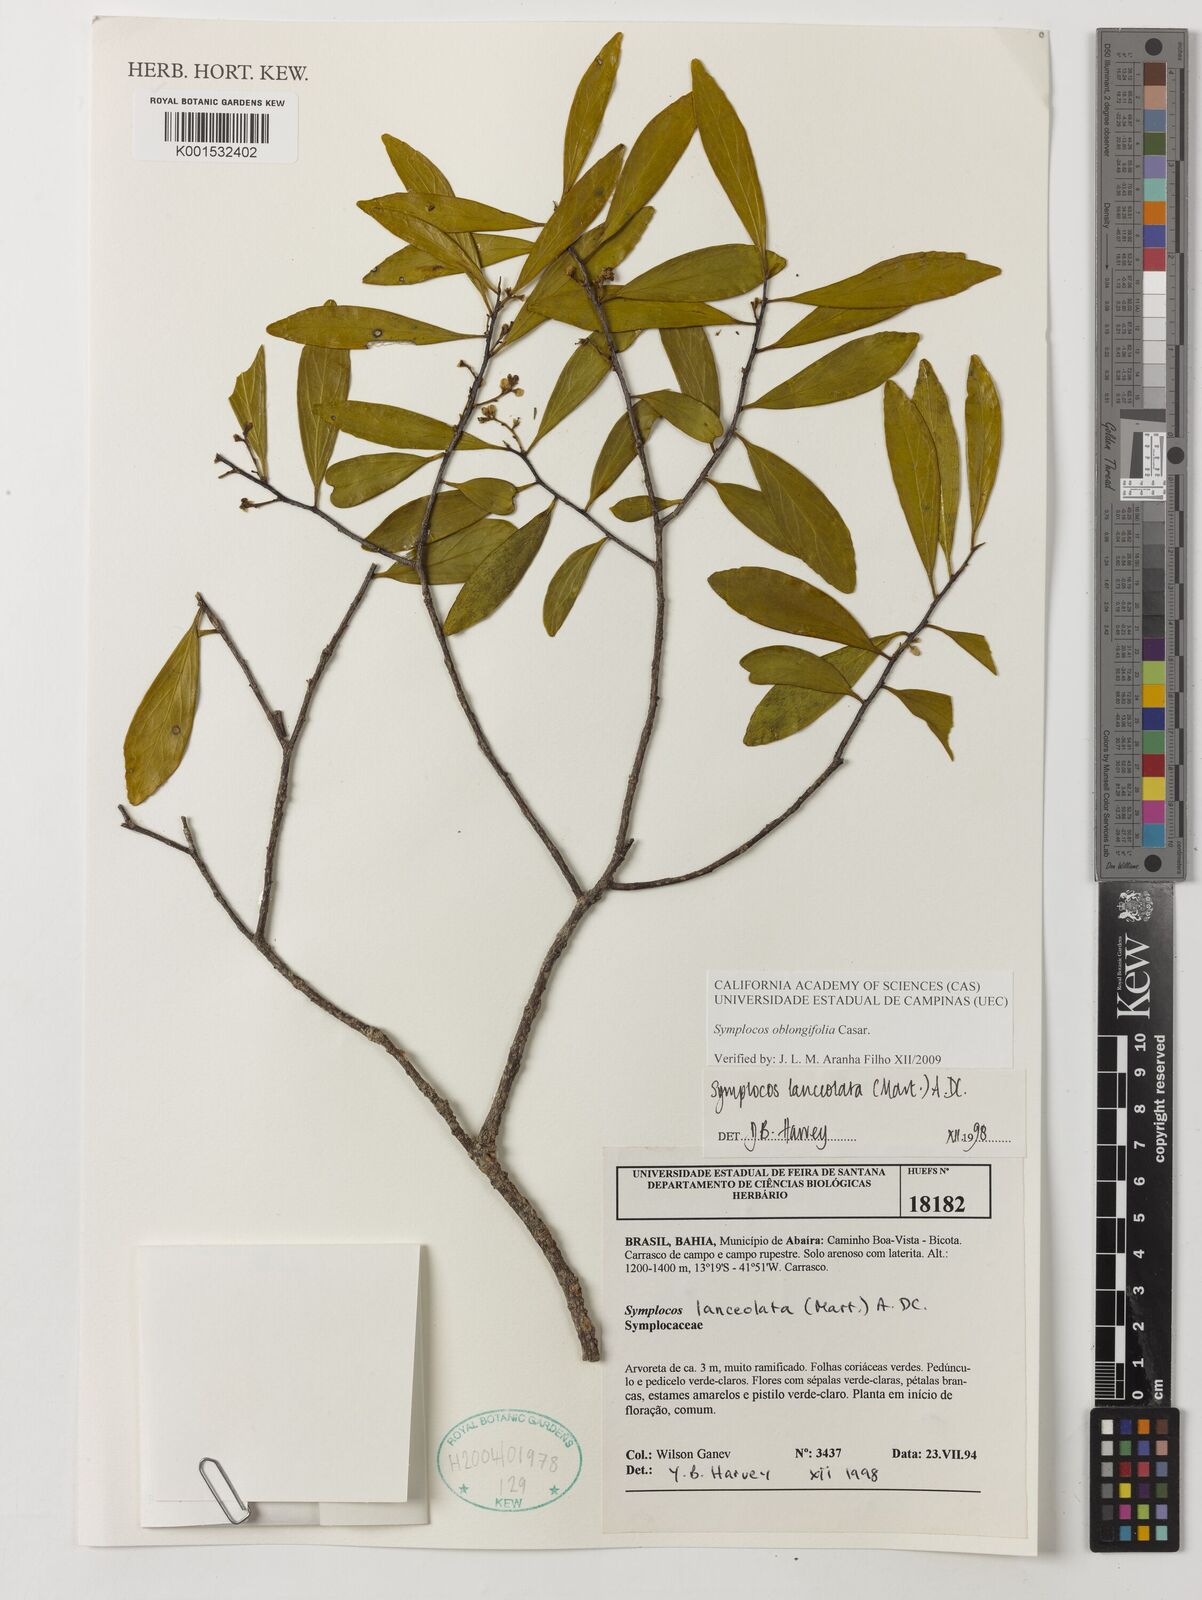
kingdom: Plantae
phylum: Tracheophyta
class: Magnoliopsida
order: Ericales
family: Symplocaceae
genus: Symplocos
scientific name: Symplocos oblongifolia
